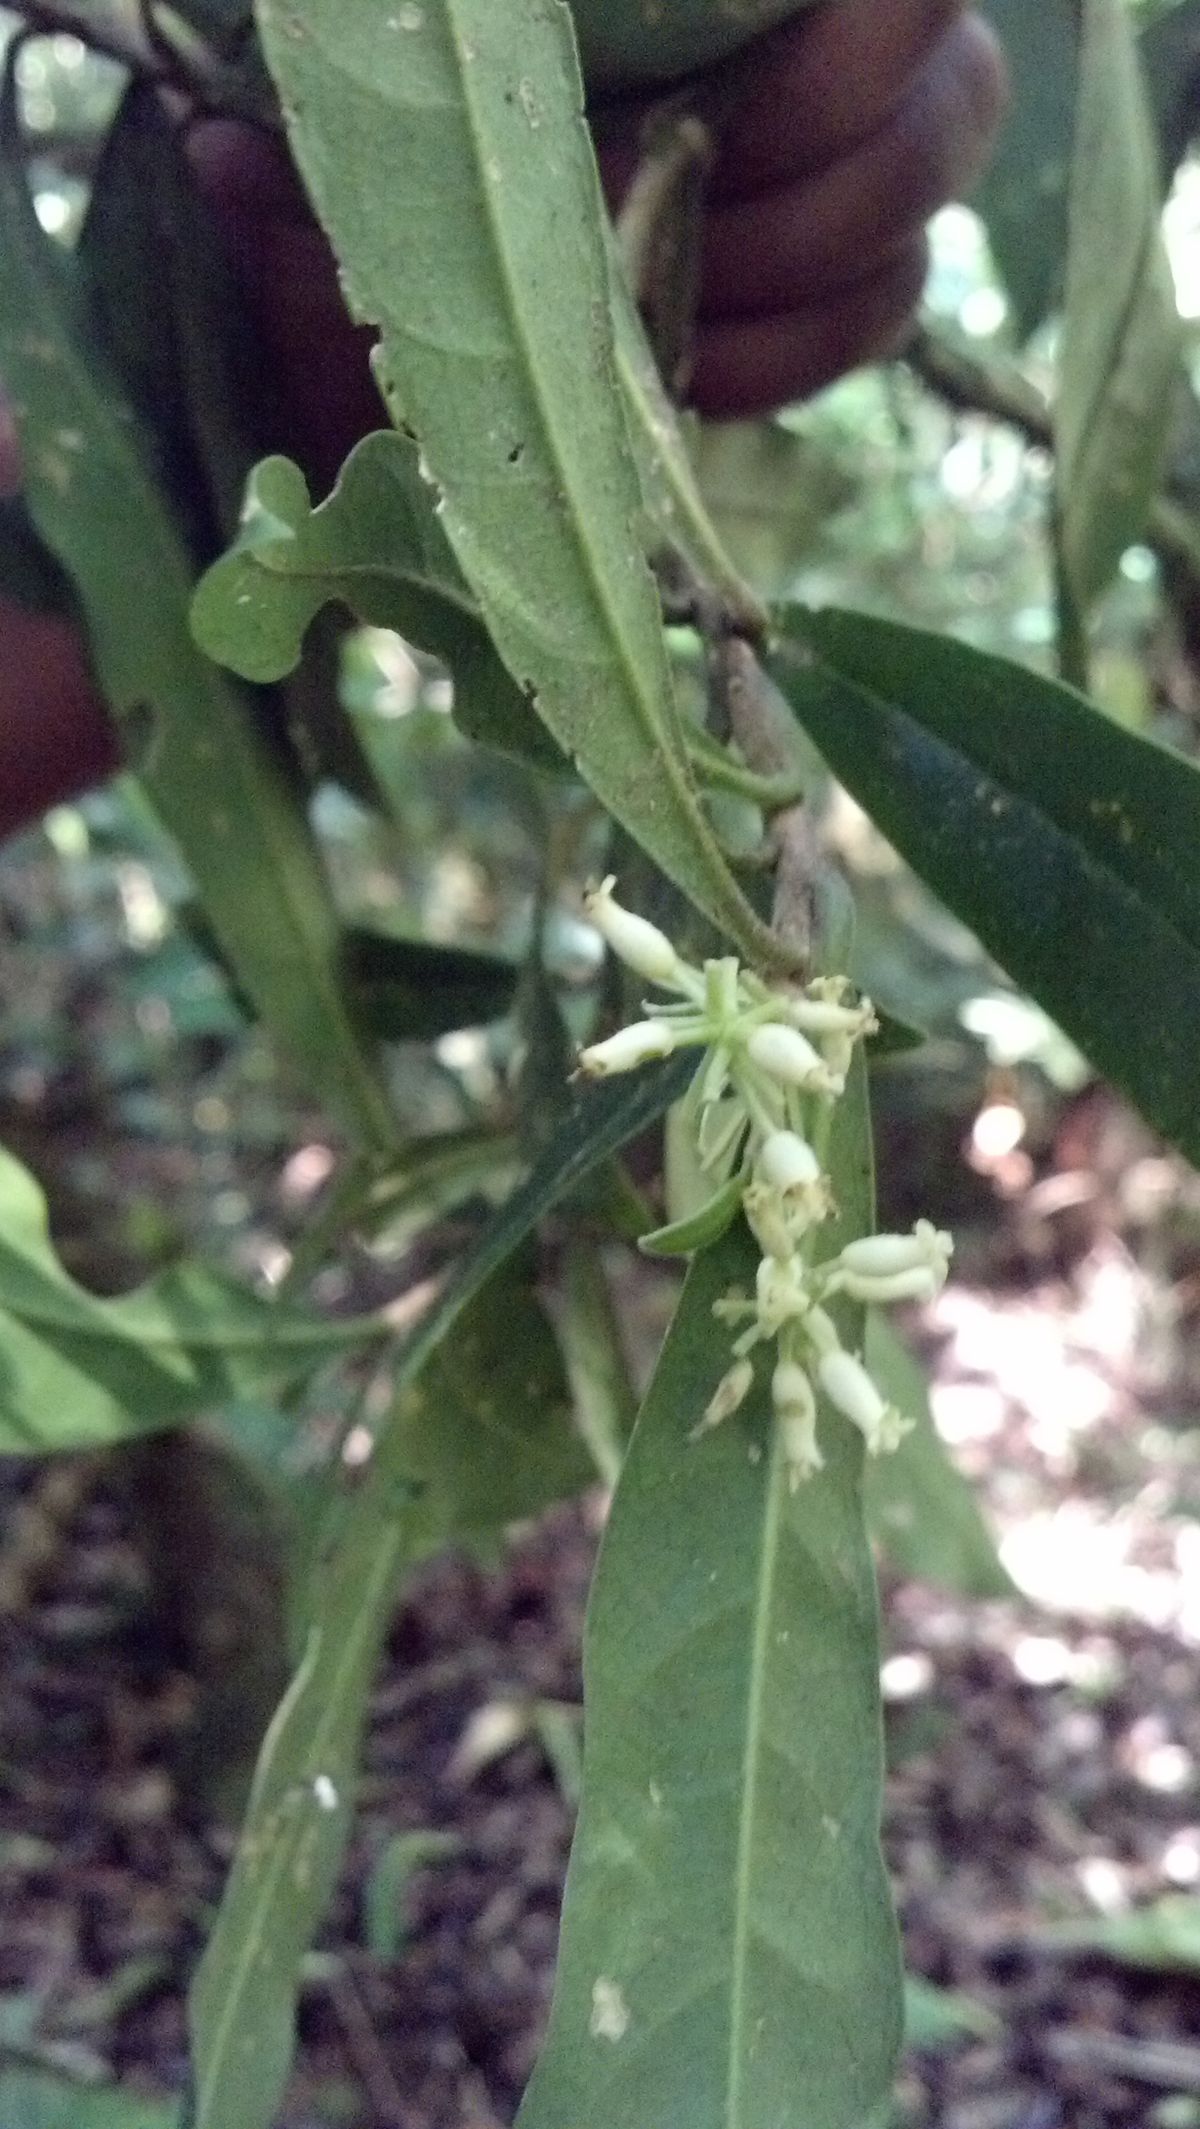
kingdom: Plantae
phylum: Tracheophyta
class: Magnoliopsida
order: Malvales
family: Thymelaeaceae
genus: Daphnopsis
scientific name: Daphnopsis ficina
